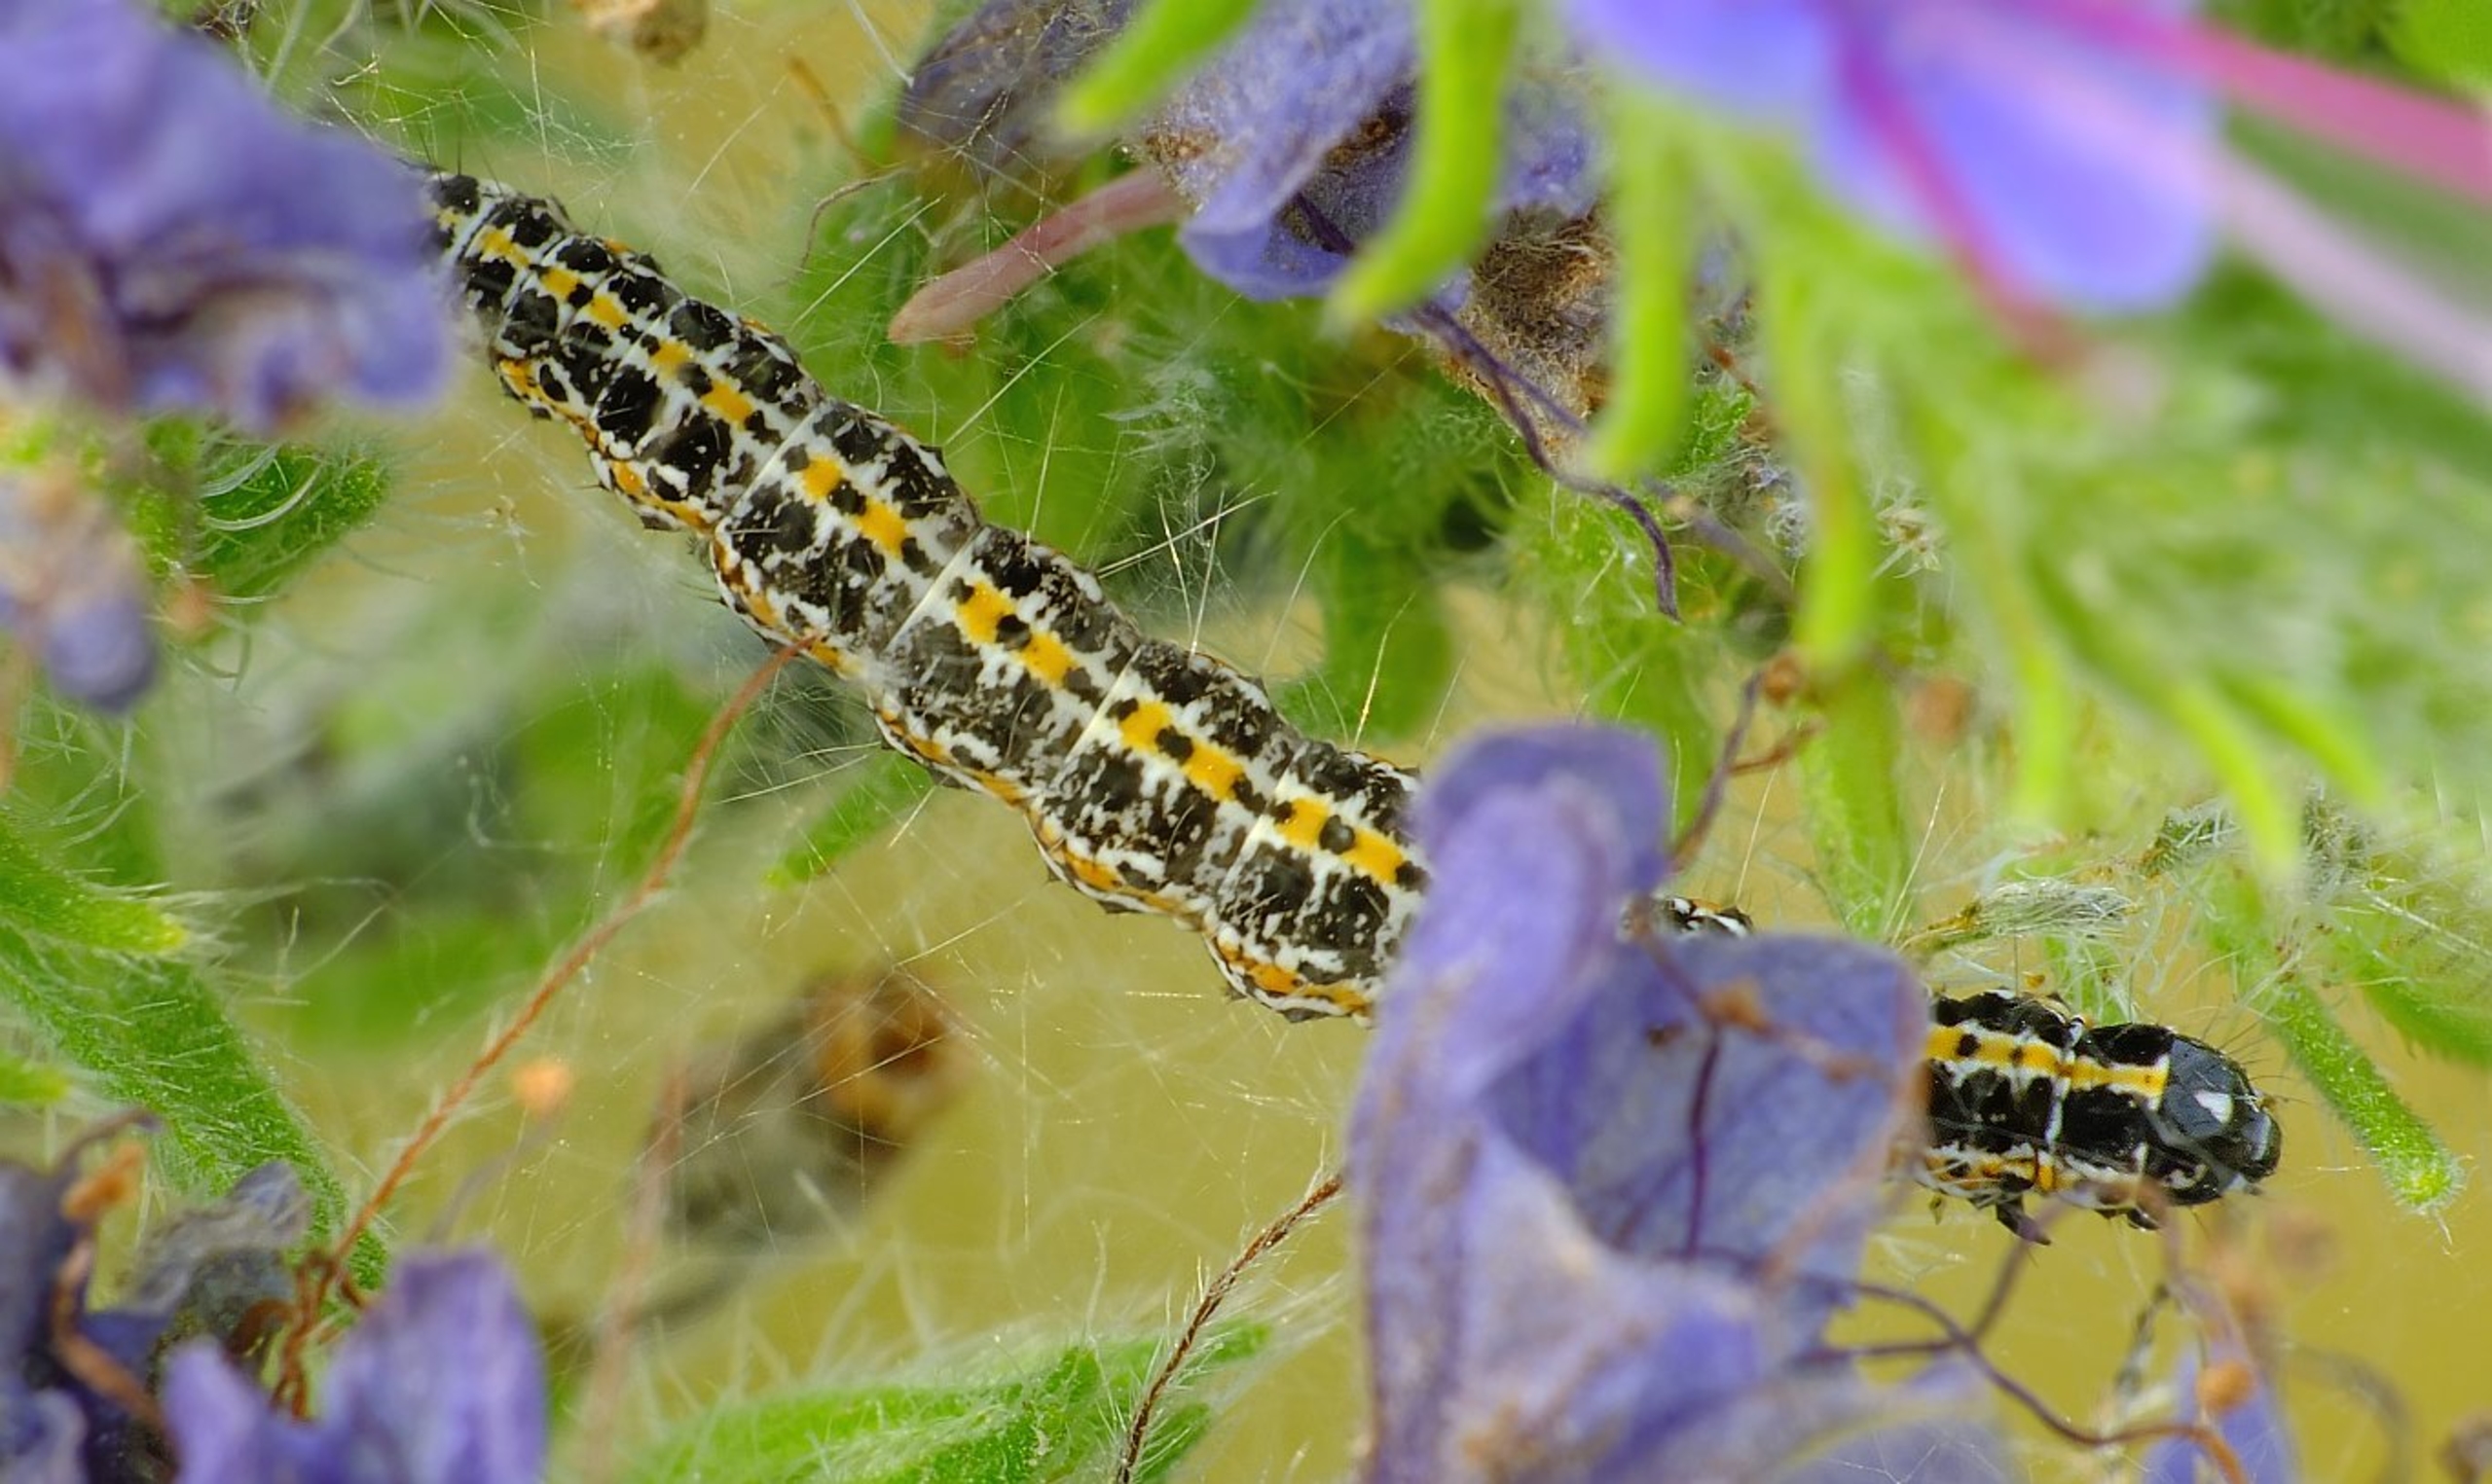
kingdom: Animalia
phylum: Arthropoda
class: Insecta
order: Lepidoptera
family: Ethmiidae
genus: Ethmia
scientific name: Ethmia bipunctella
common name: Slangehovedmøl
